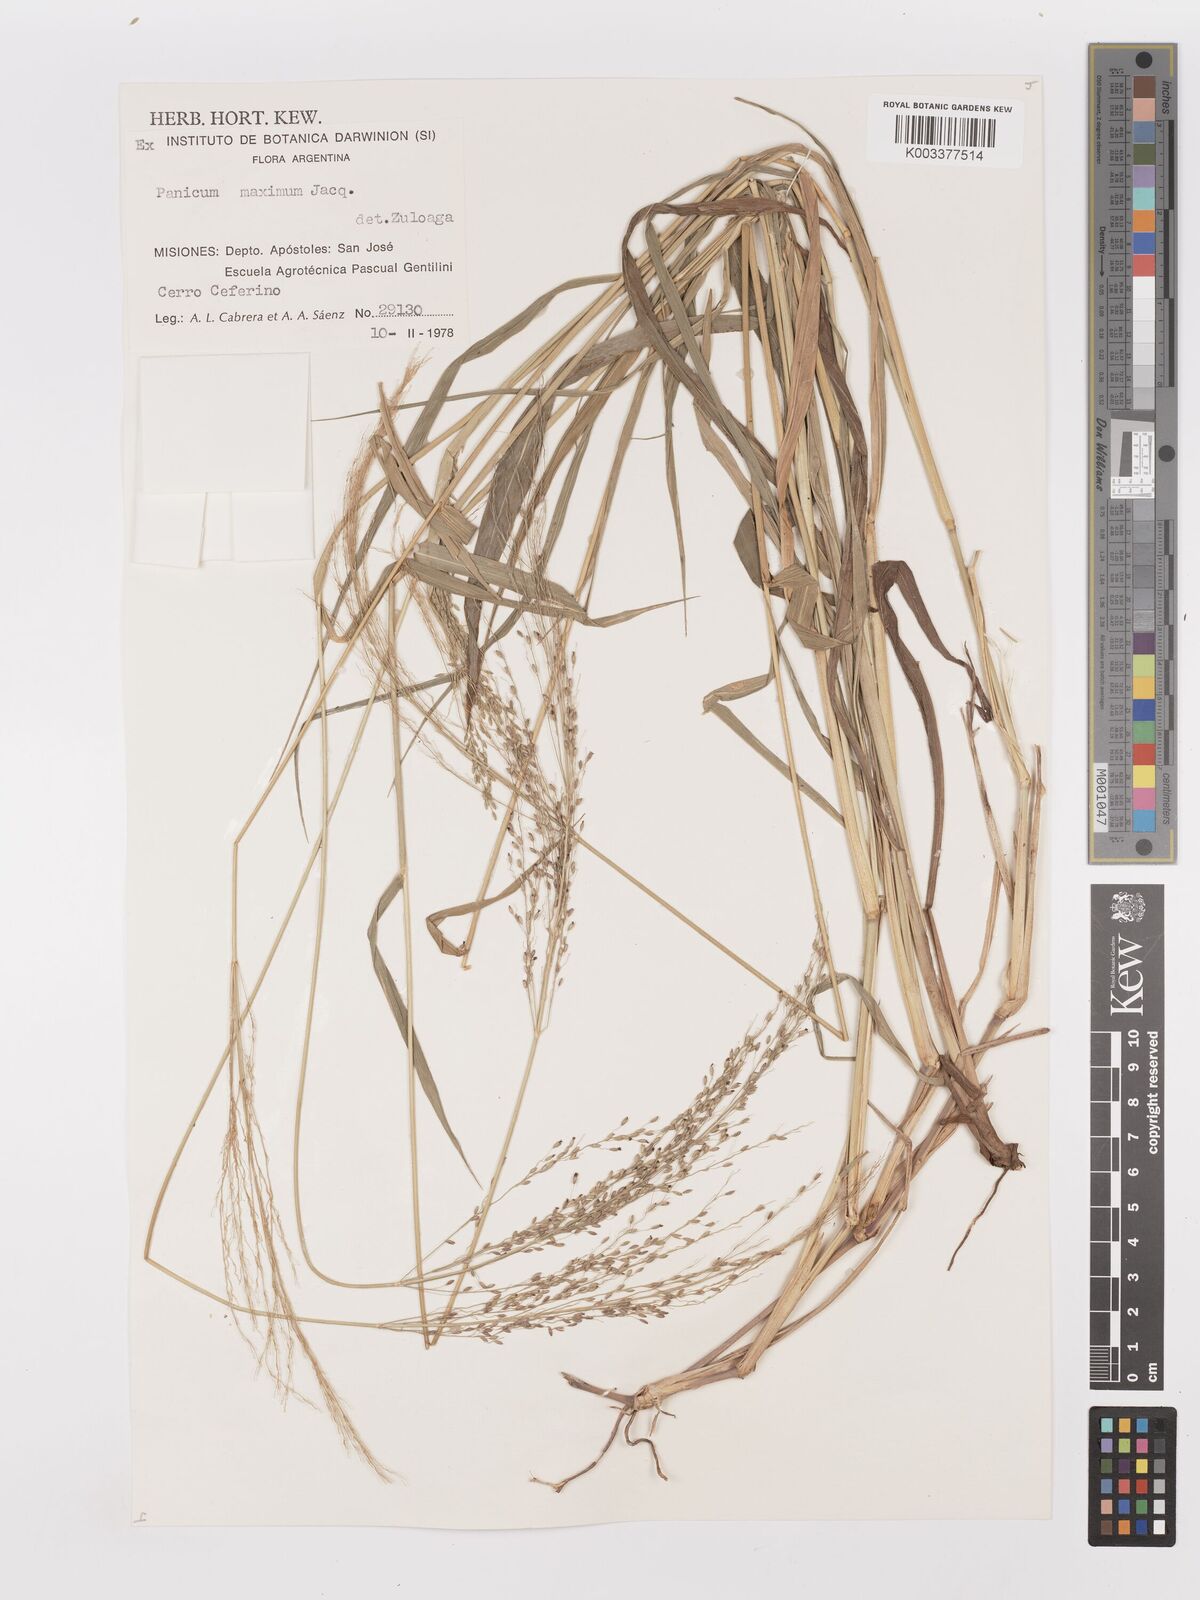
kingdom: Plantae
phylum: Tracheophyta
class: Liliopsida
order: Poales
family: Poaceae
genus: Megathyrsus
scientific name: Megathyrsus maximus
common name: Guineagrass
